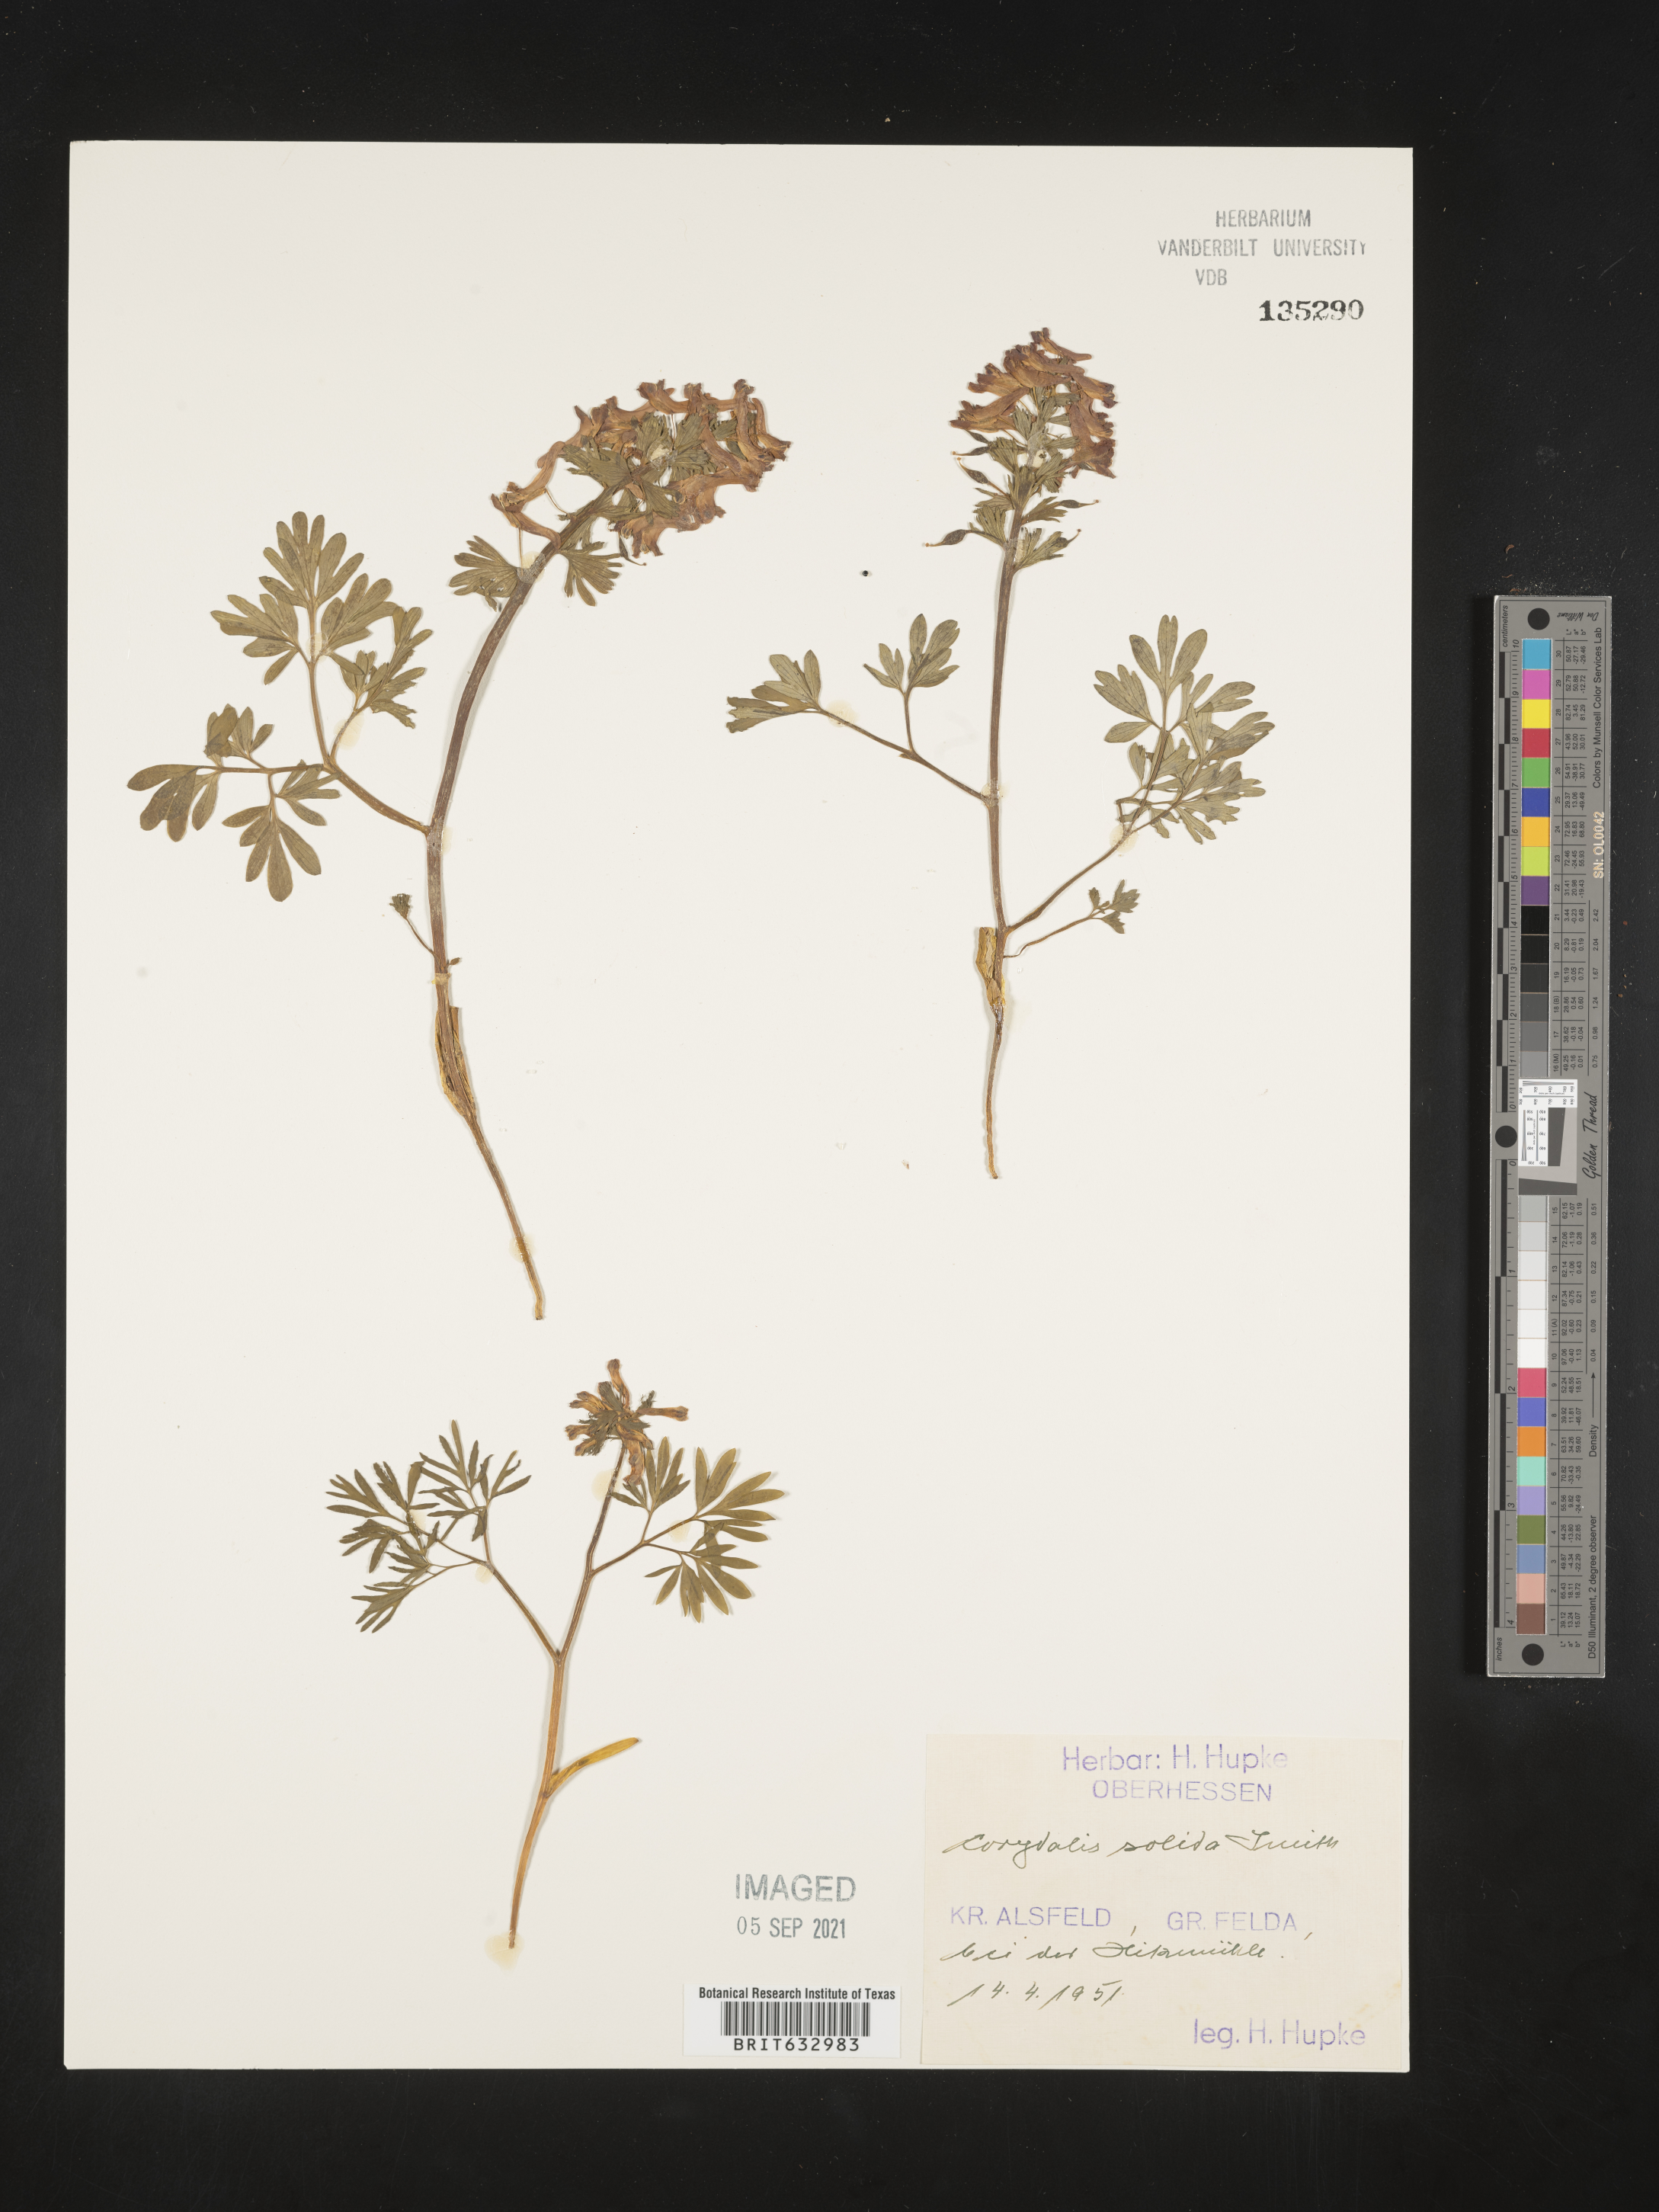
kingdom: Plantae
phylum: Tracheophyta
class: Magnoliopsida
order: Ranunculales
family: Papaveraceae
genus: Corydalis
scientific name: Corydalis
